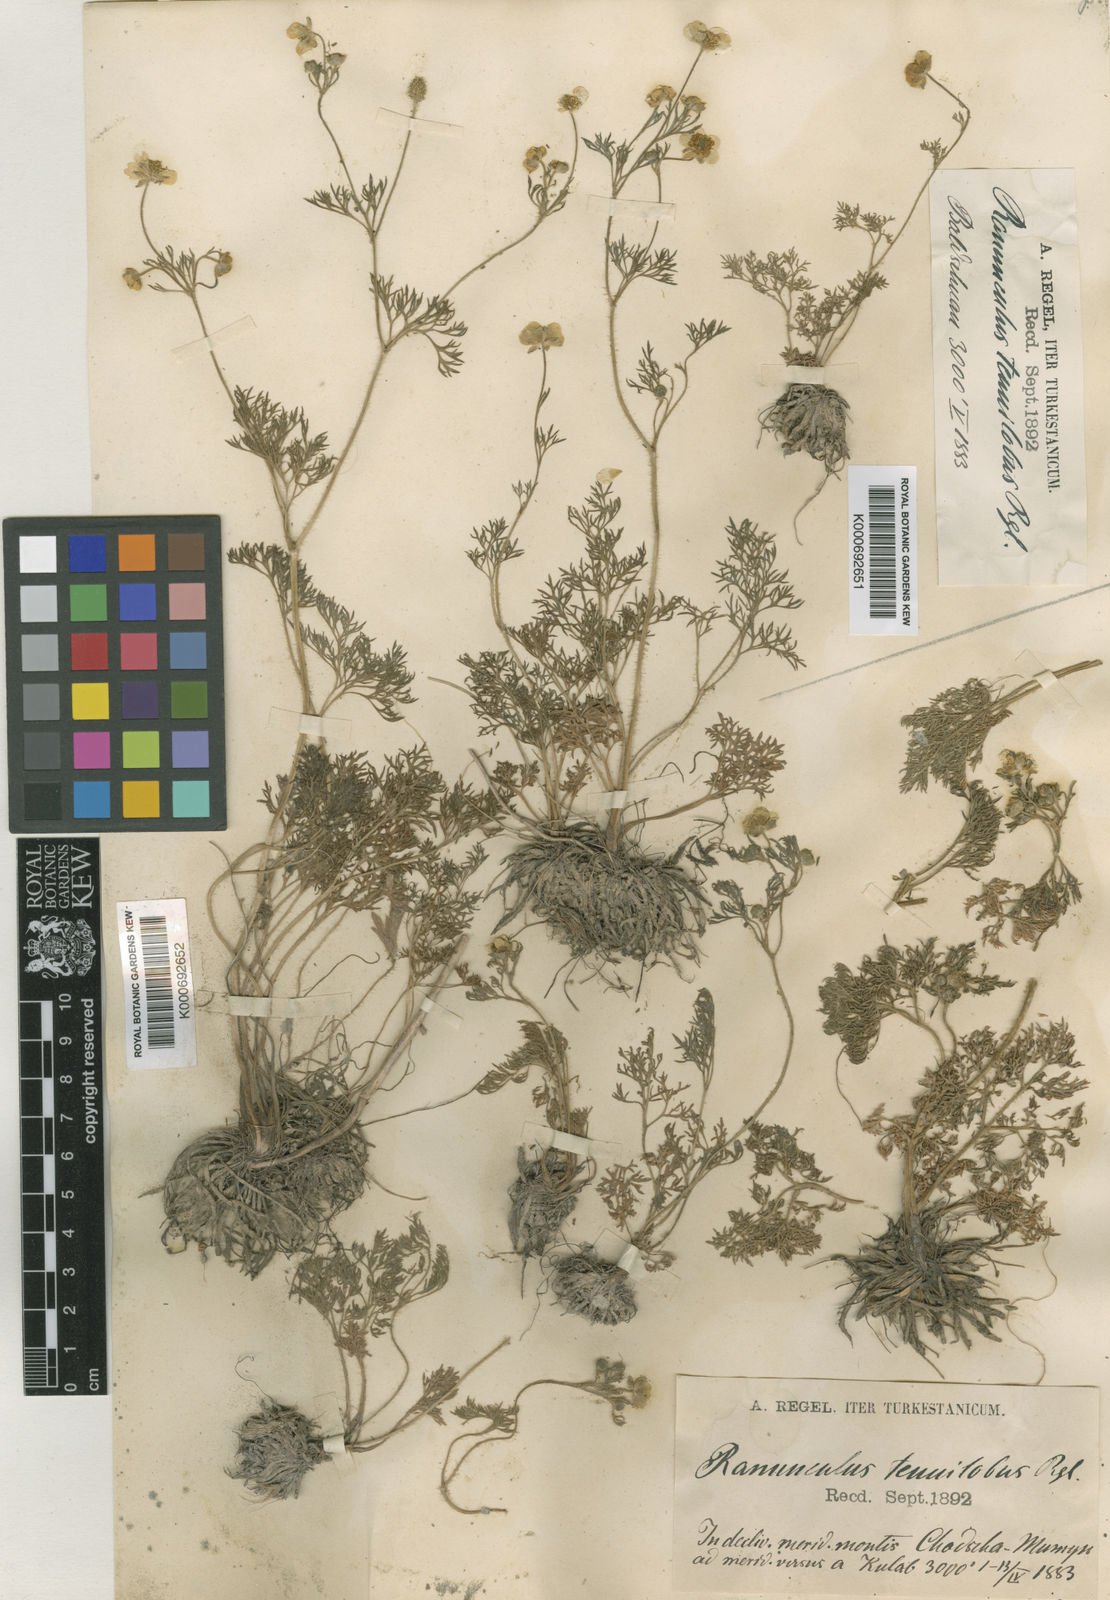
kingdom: Plantae
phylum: Tracheophyta
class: Magnoliopsida
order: Ranunculales
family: Ranunculaceae
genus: Ranunculus
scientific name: Ranunculus tenuilobus
